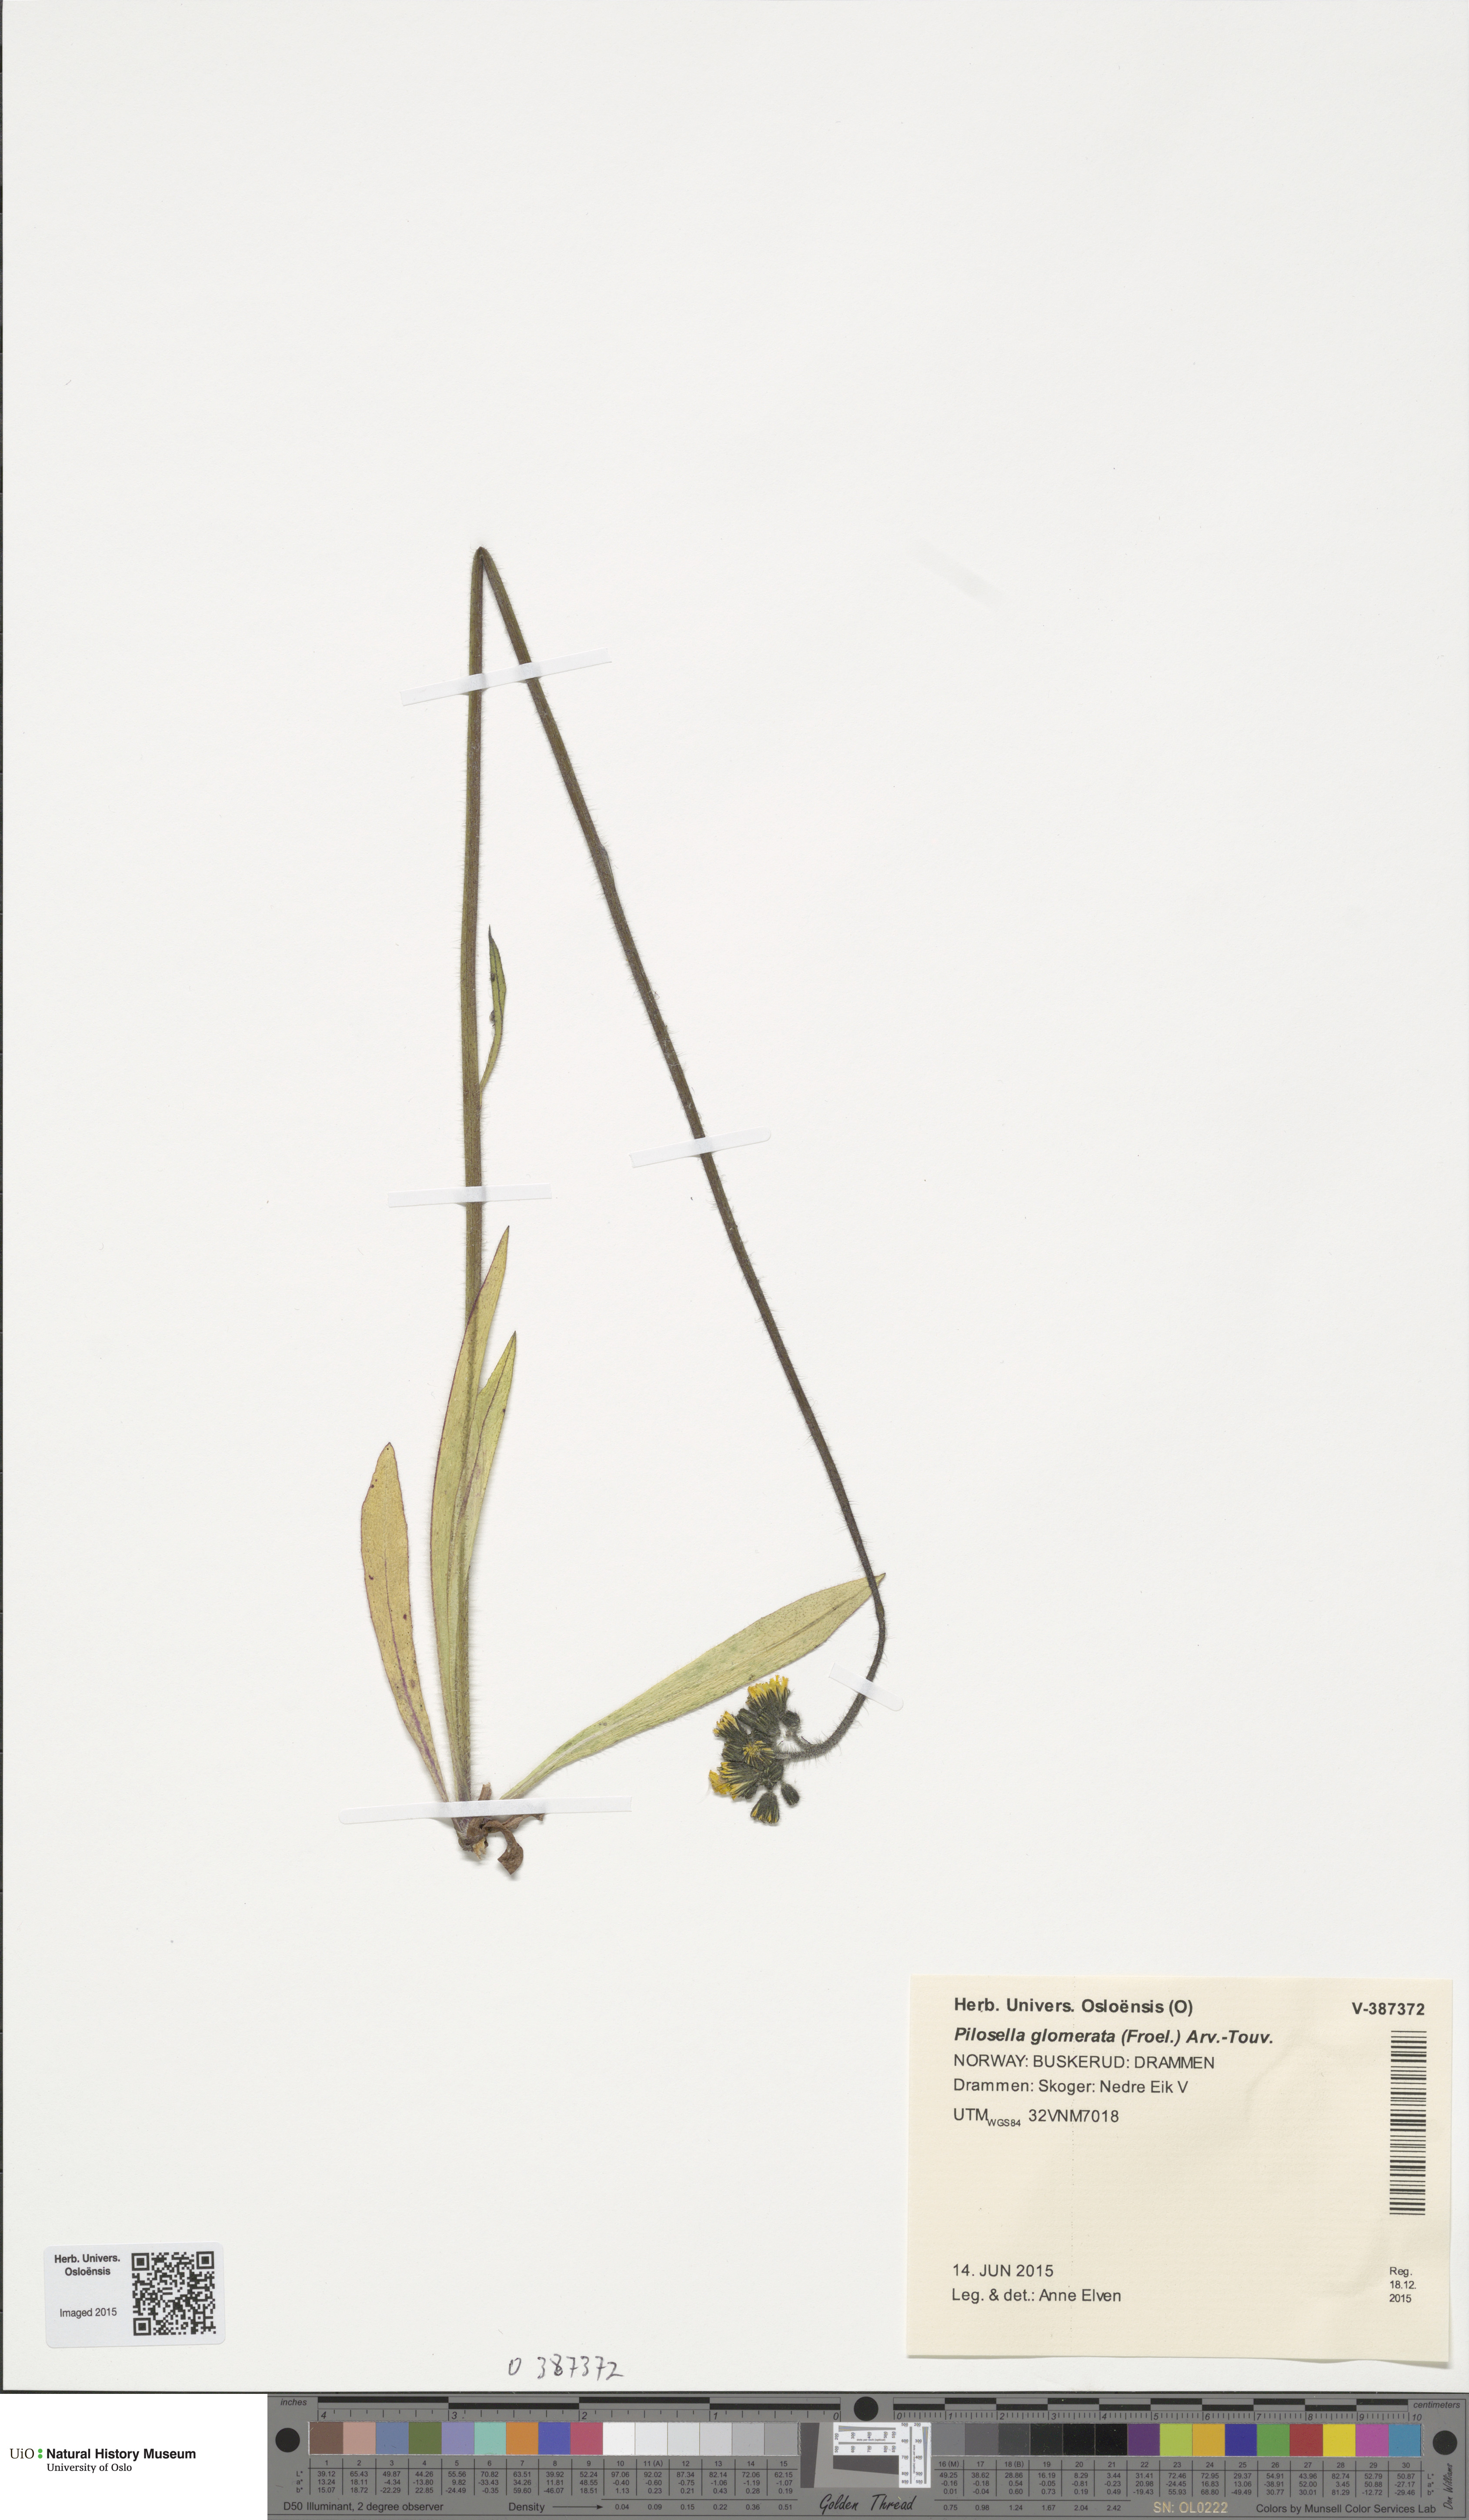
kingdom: Plantae
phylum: Tracheophyta
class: Magnoliopsida
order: Asterales
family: Asteraceae
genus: Pilosella
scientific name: Pilosella glomerata
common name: Queen devil hawkweed
